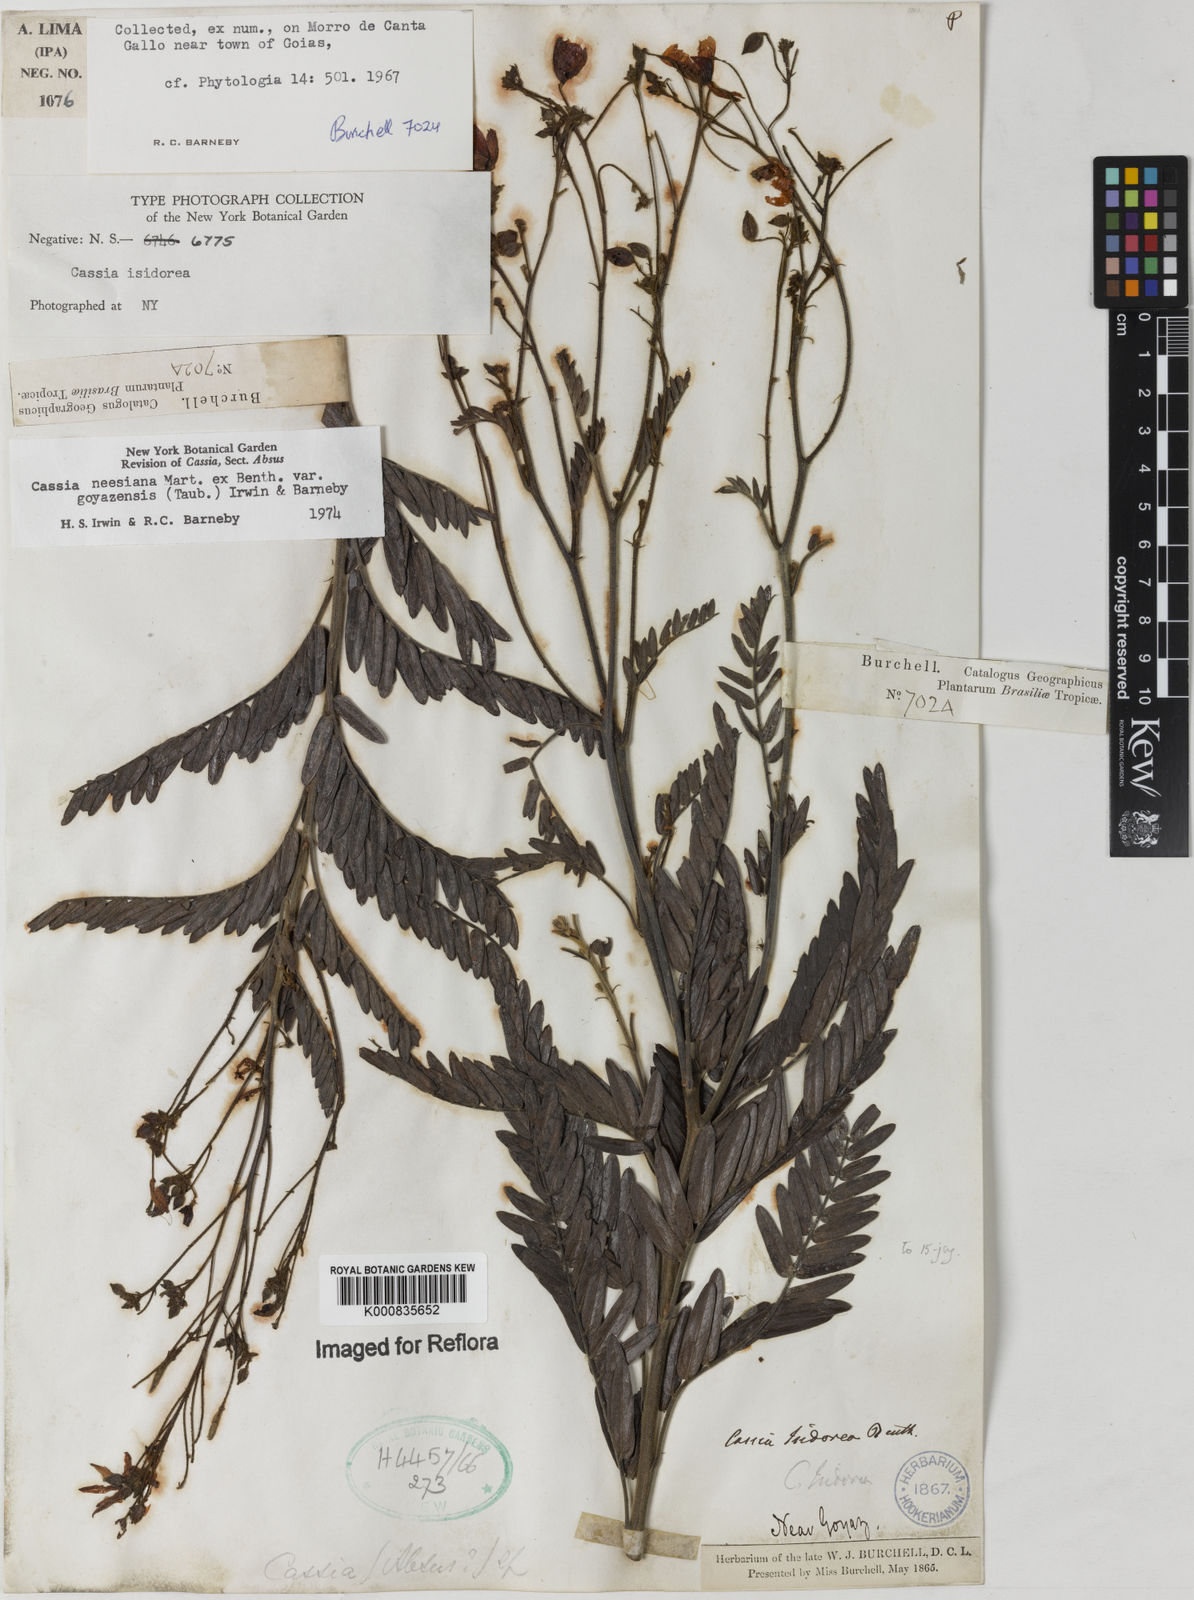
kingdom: Plantae
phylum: Tracheophyta
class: Magnoliopsida
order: Fabales
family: Fabaceae
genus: Chamaecrista
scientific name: Chamaecrista neesiana
